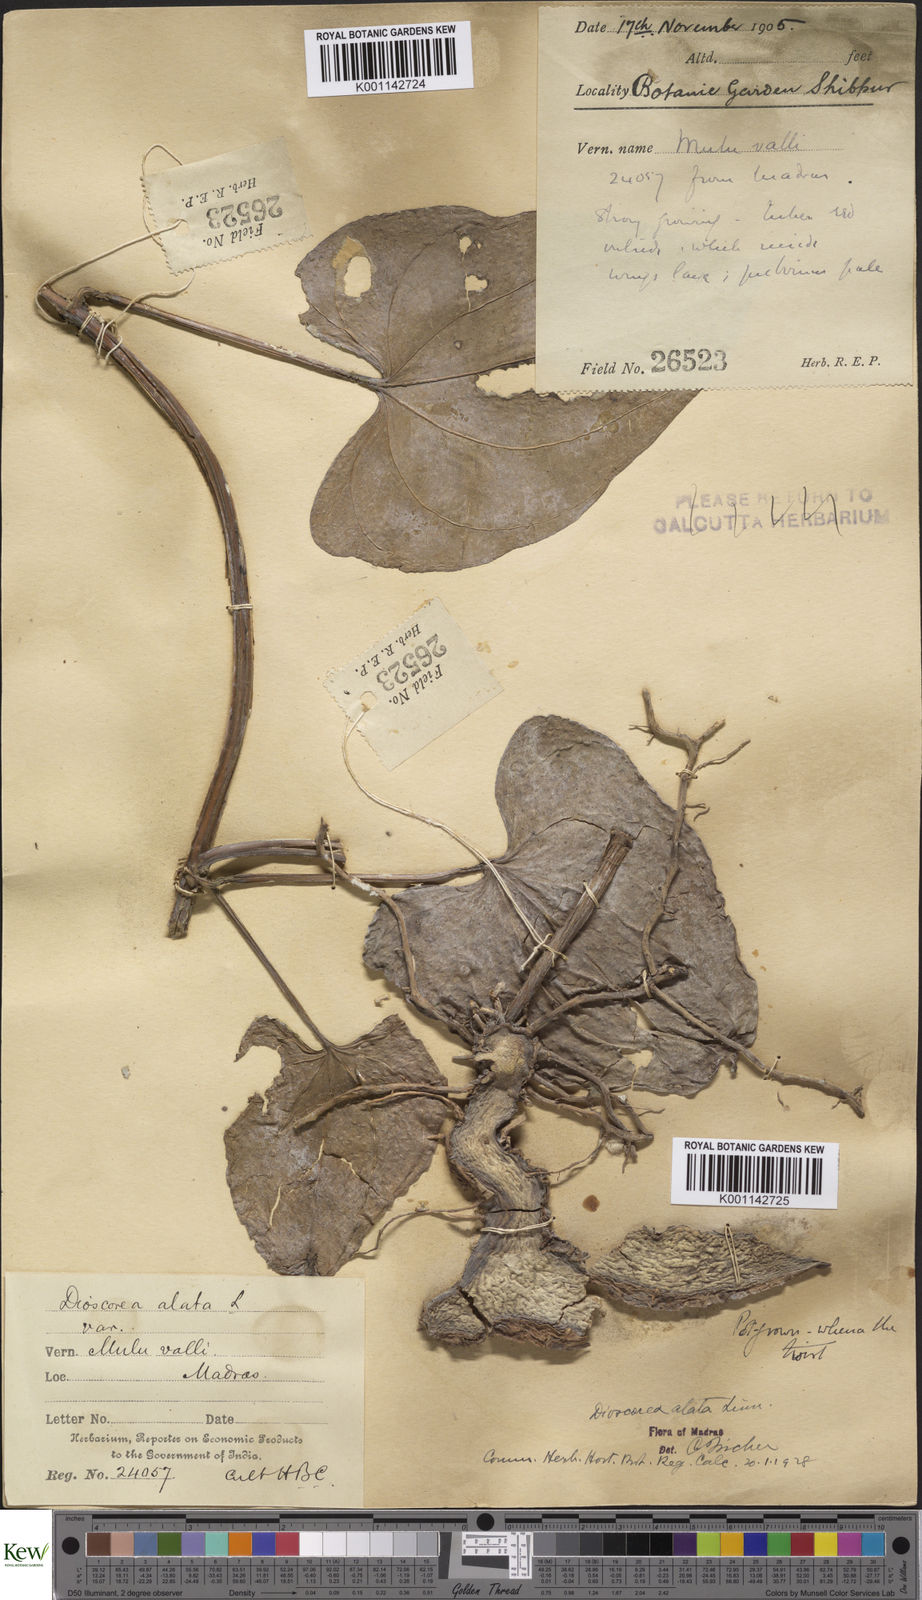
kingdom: Plantae
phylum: Tracheophyta
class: Liliopsida
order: Dioscoreales
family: Dioscoreaceae
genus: Dioscorea
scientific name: Dioscorea alata
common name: Water yam
